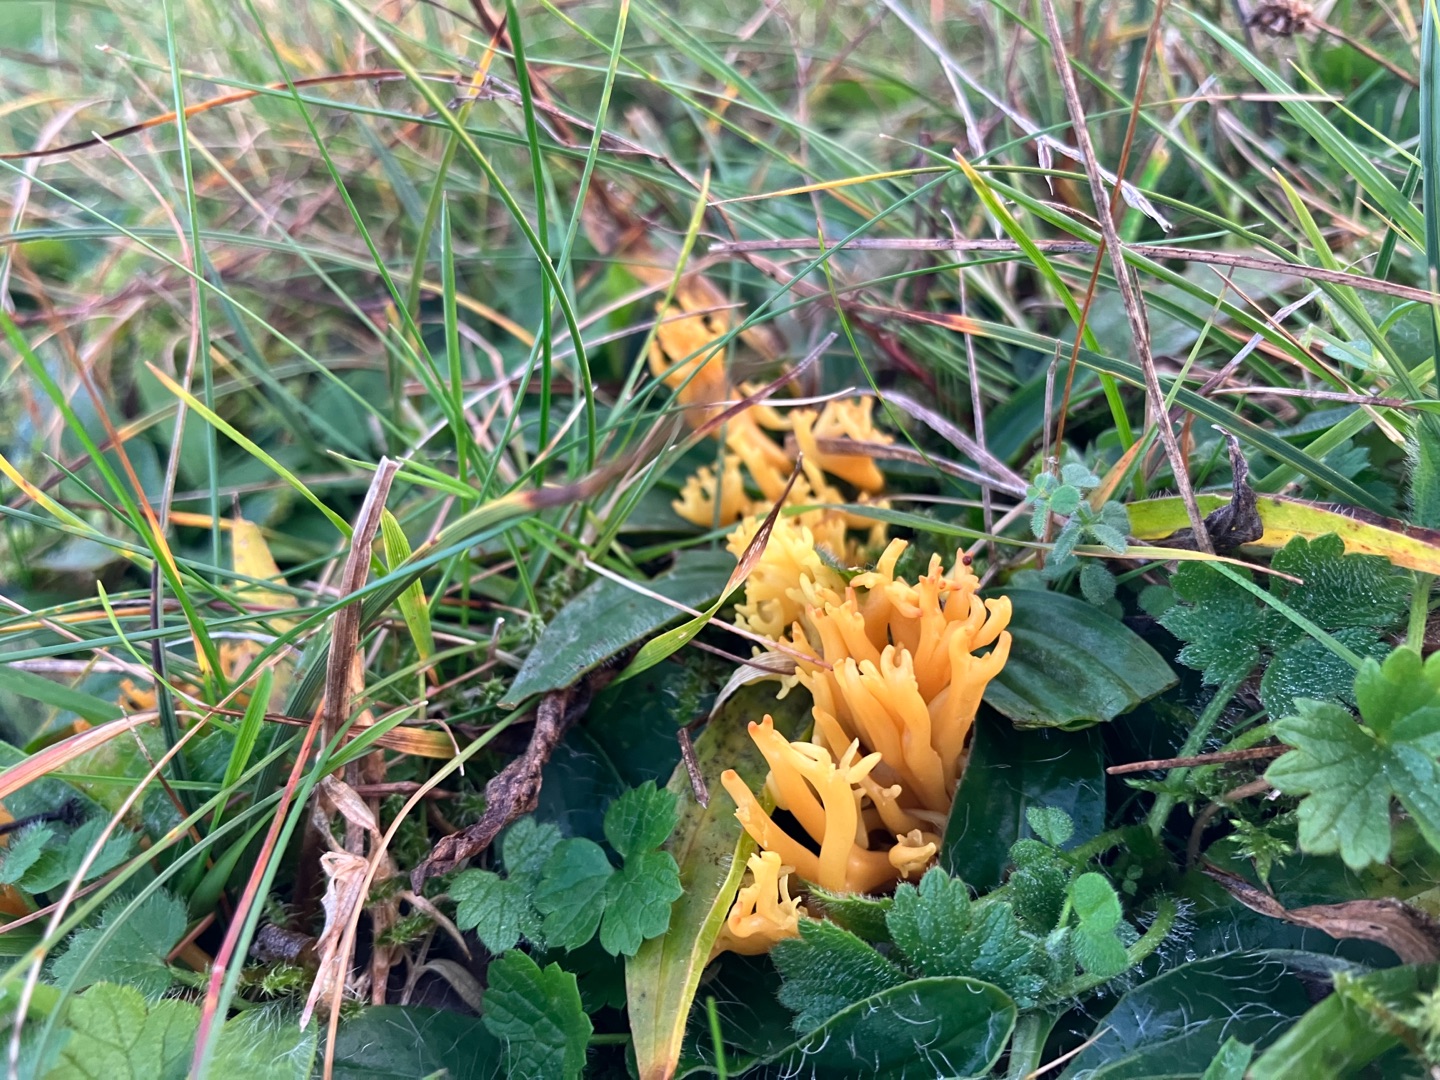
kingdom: Fungi
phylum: Basidiomycota
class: Agaricomycetes
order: Agaricales
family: Clavariaceae
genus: Clavulinopsis
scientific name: Clavulinopsis corniculata
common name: Eng-køllesvamp
